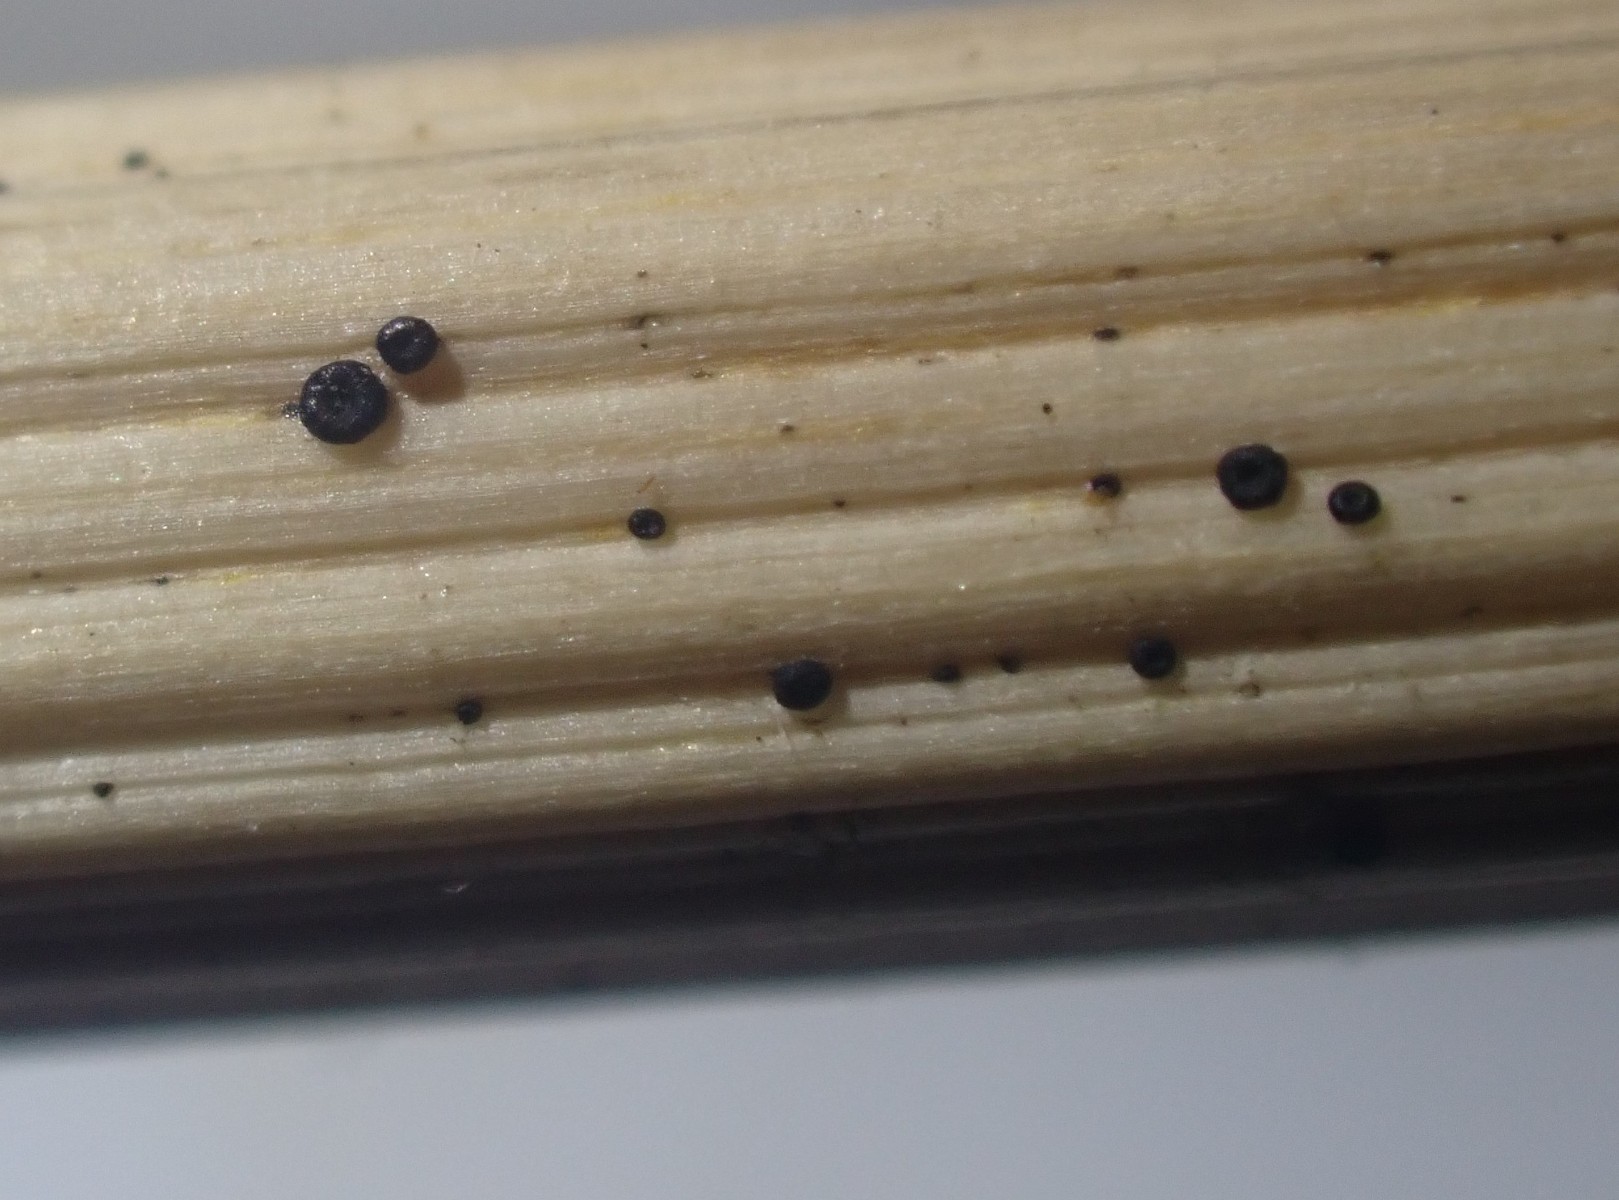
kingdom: Fungi
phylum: Ascomycota
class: Leotiomycetes
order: Helotiales
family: Heterosphaeriaceae
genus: Heterosphaeria
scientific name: Heterosphaeria
